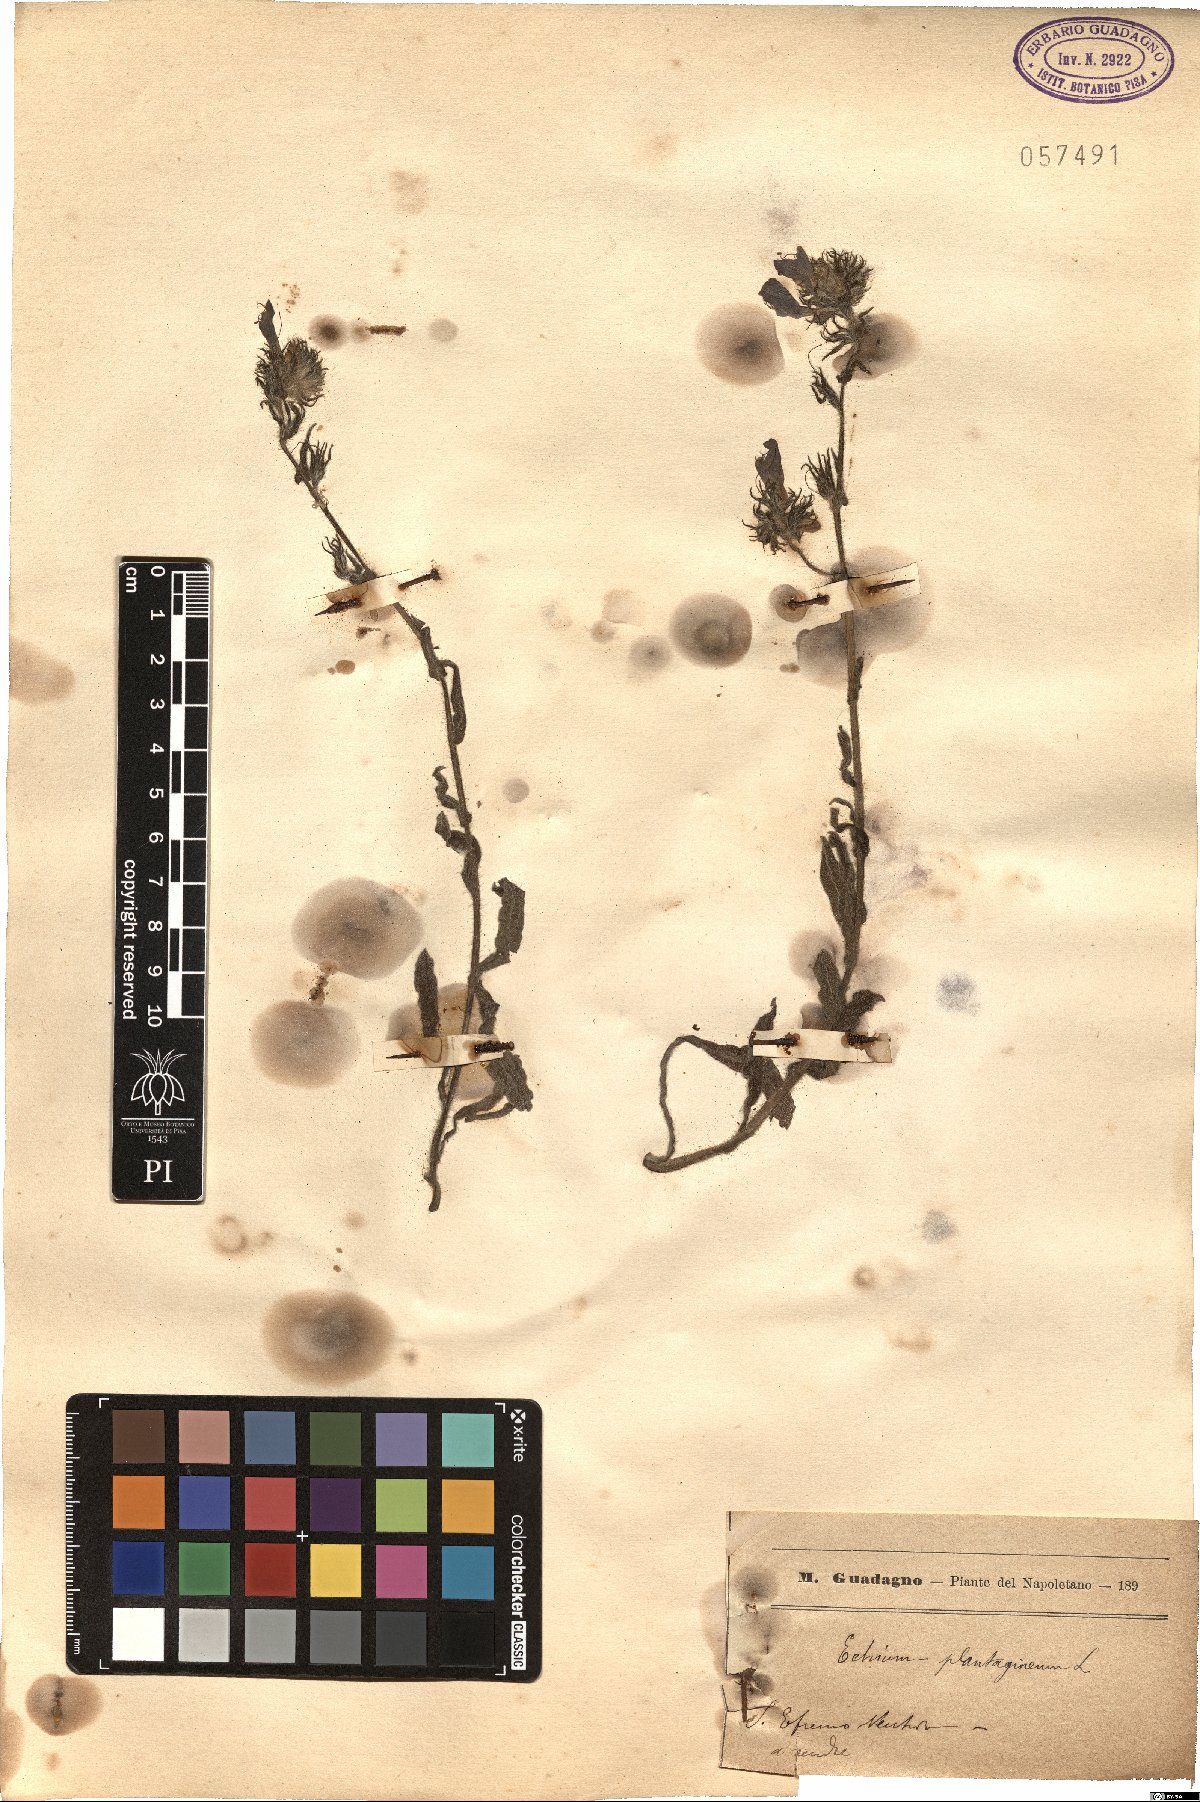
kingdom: Plantae
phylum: Tracheophyta
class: Magnoliopsida
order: Boraginales
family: Boraginaceae
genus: Echium
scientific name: Echium plantagineum
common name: Purple viper's-bugloss
